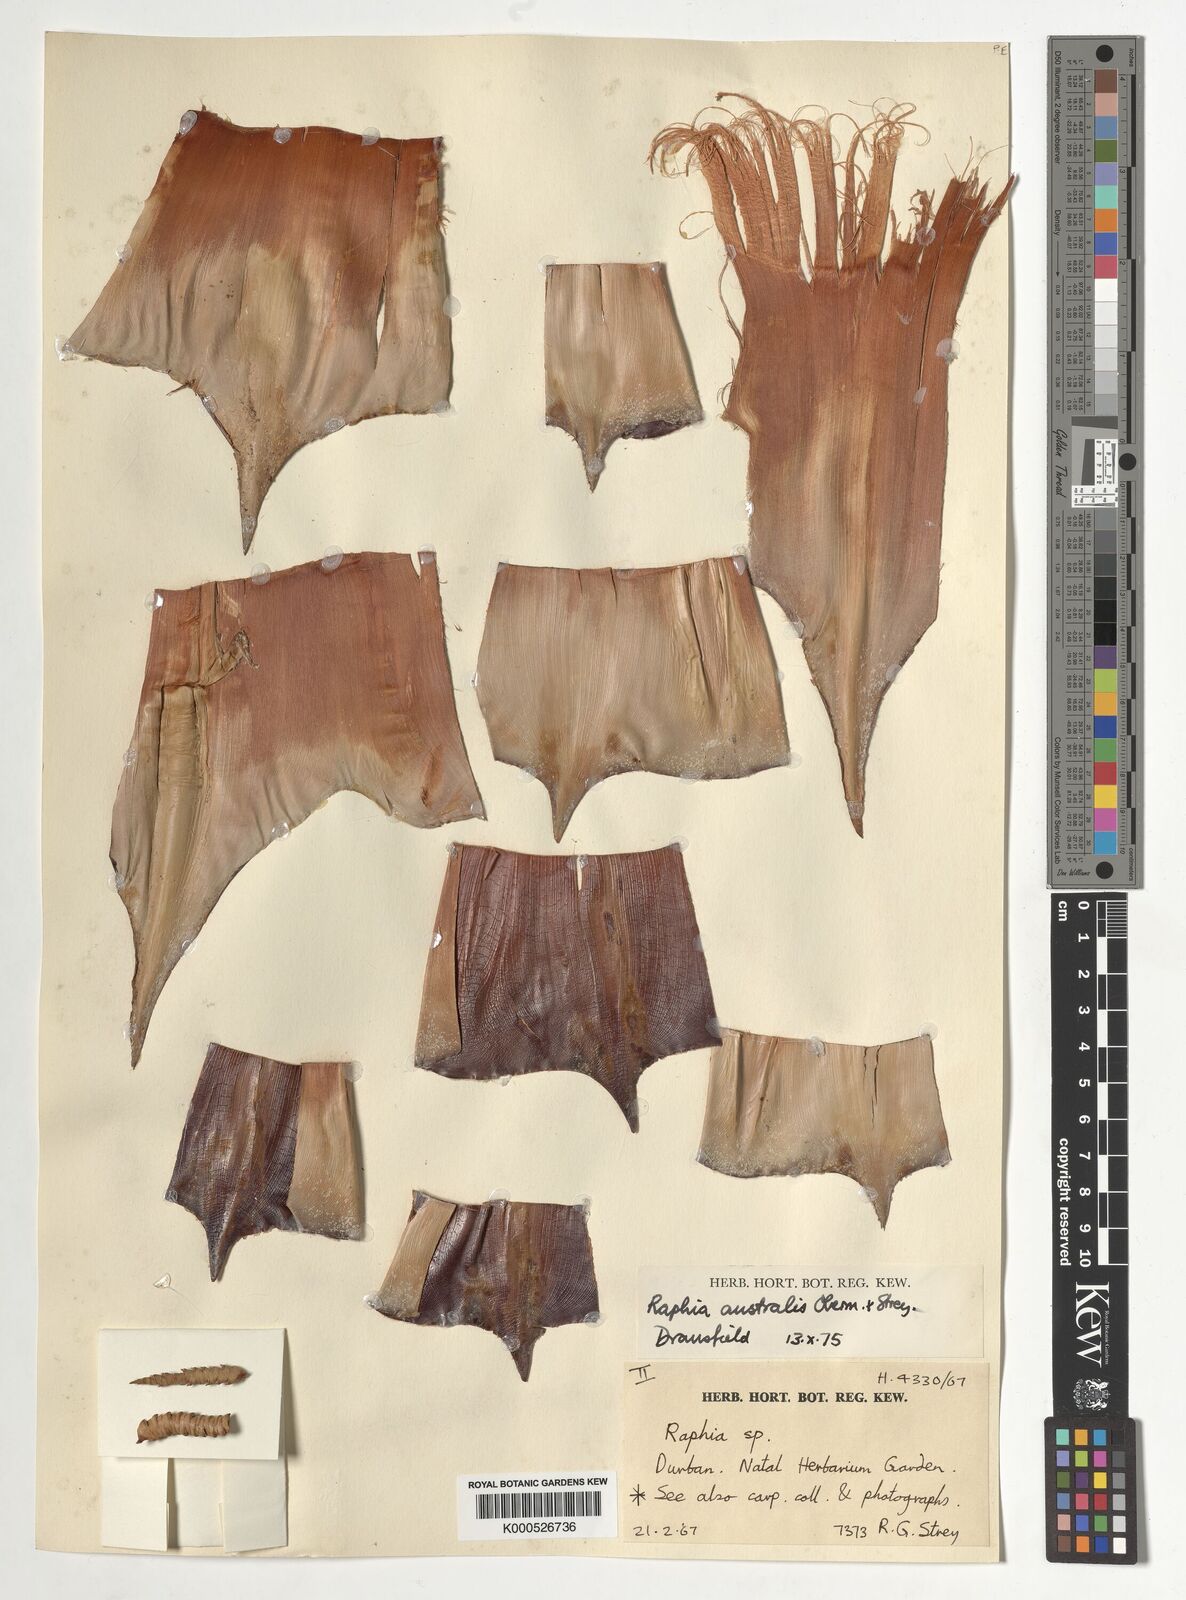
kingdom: Plantae
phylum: Tracheophyta
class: Liliopsida
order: Arecales
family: Arecaceae
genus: Raphia
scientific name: Raphia australis
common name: Giant palm
